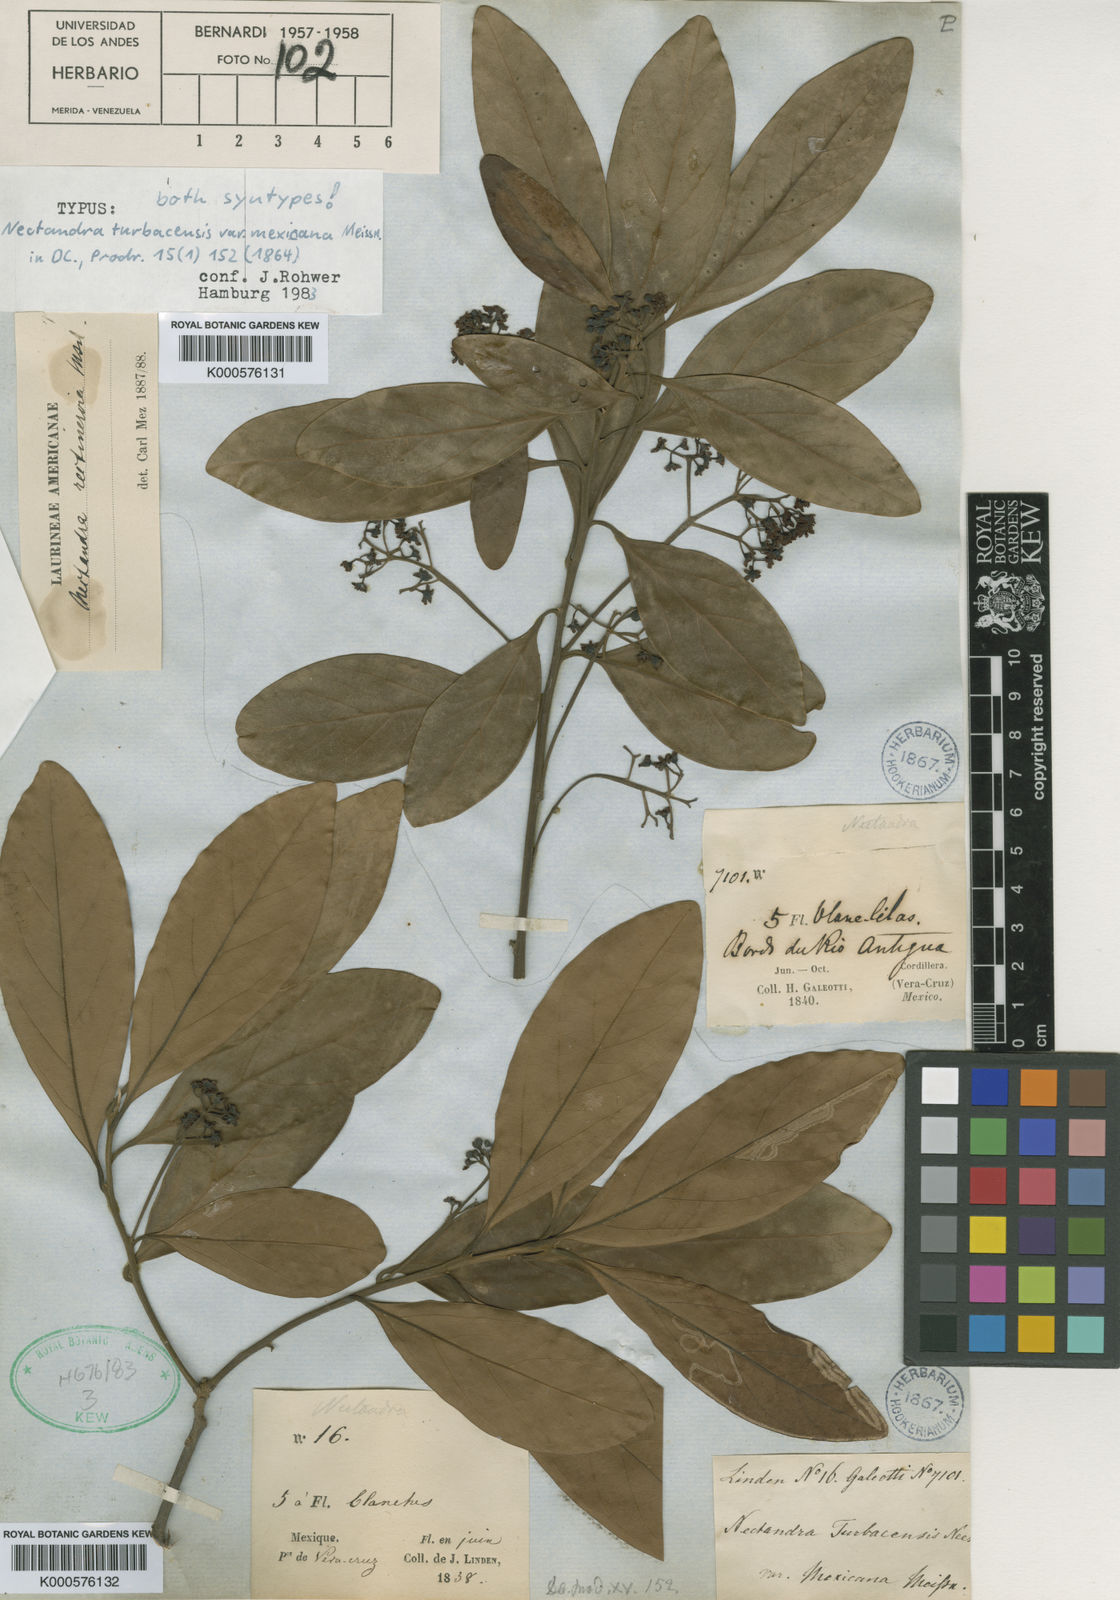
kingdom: Plantae
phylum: Tracheophyta
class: Magnoliopsida
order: Laurales
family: Lauraceae
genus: Nectandra
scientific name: Nectandra turbacensis
